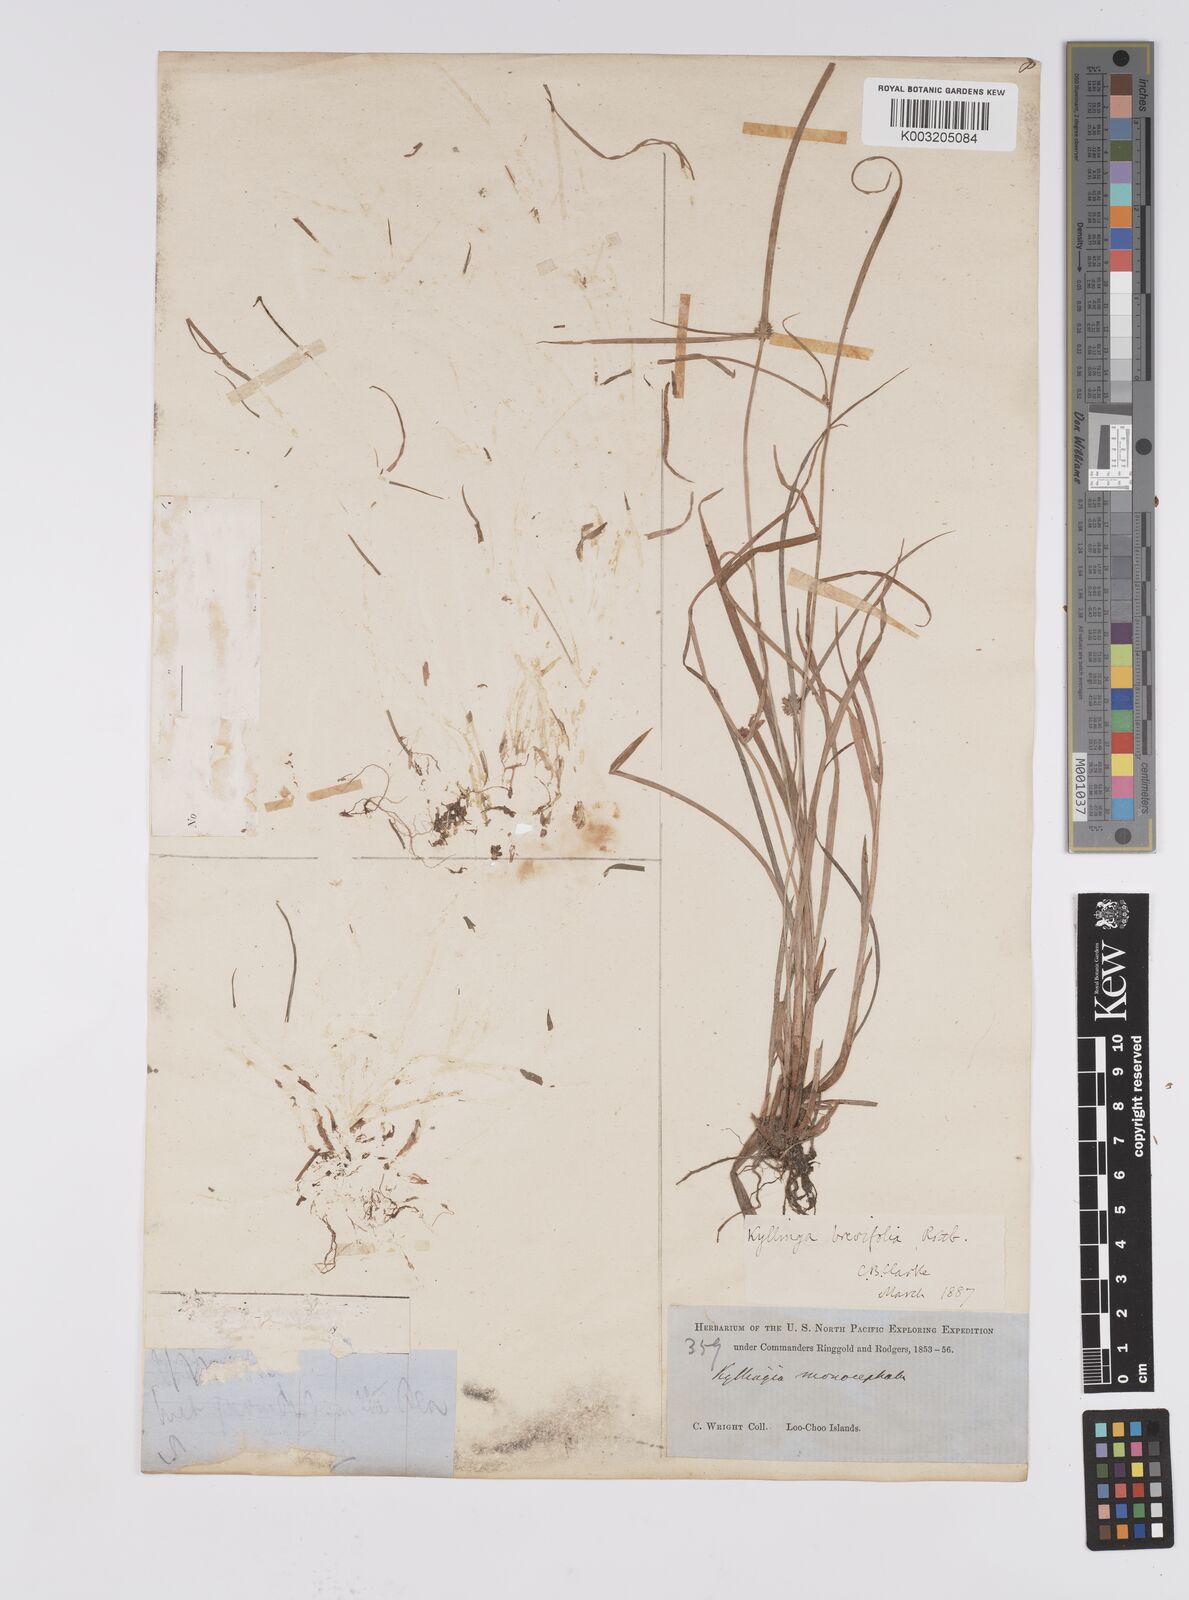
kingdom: Plantae
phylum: Tracheophyta
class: Liliopsida
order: Poales
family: Cyperaceae
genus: Cyperus
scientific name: Cyperus brevifolius
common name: Globe kyllinga
